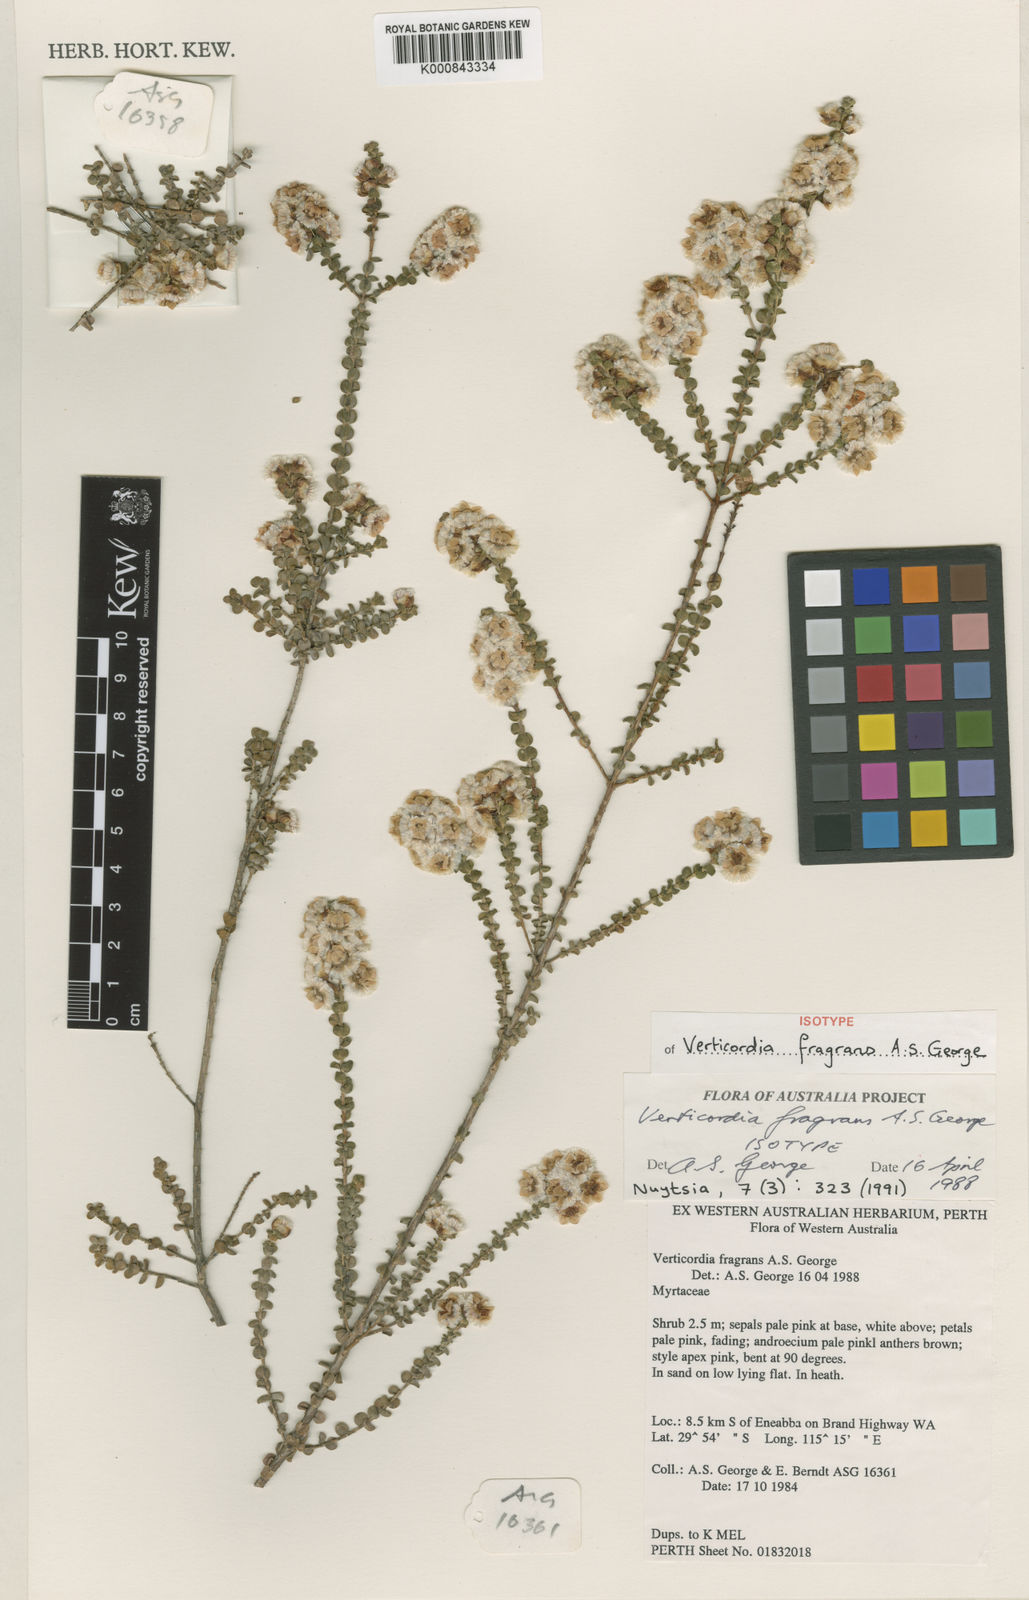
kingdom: Plantae
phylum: Tracheophyta
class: Magnoliopsida
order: Myrtales
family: Myrtaceae
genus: Verticordia
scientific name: Verticordia fragrans
